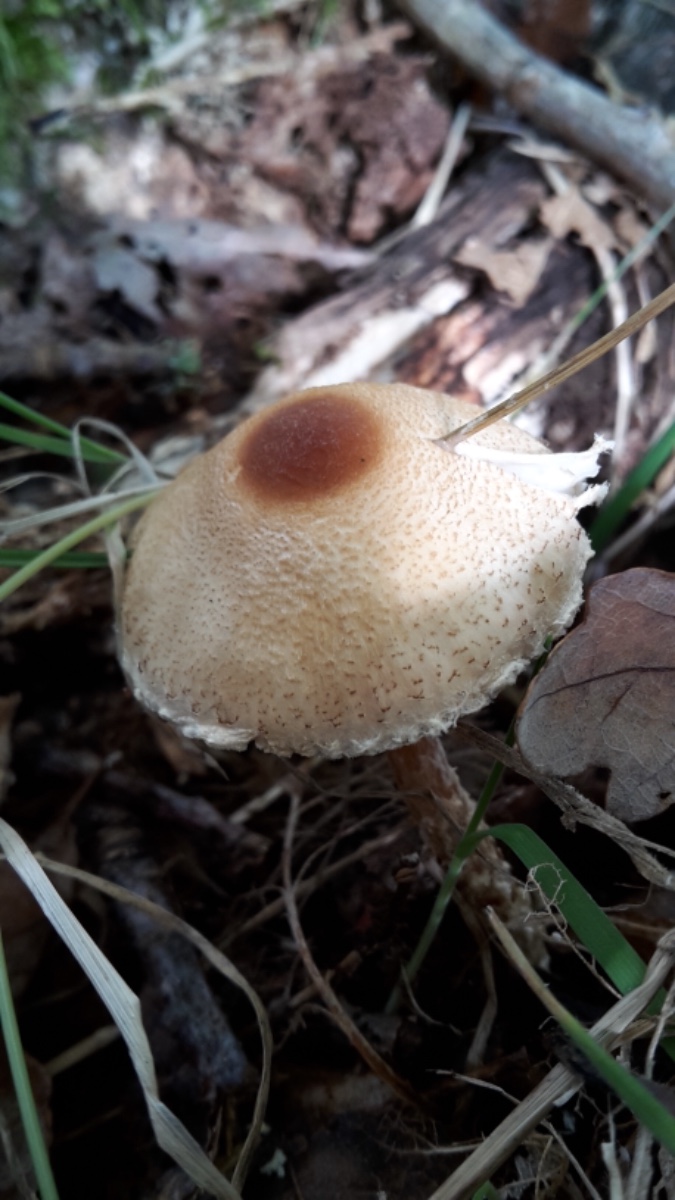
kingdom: Fungi
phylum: Basidiomycota
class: Agaricomycetes
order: Agaricales
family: Agaricaceae
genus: Lepiota
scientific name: Lepiota magnispora
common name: gulfnugget parasolhat
